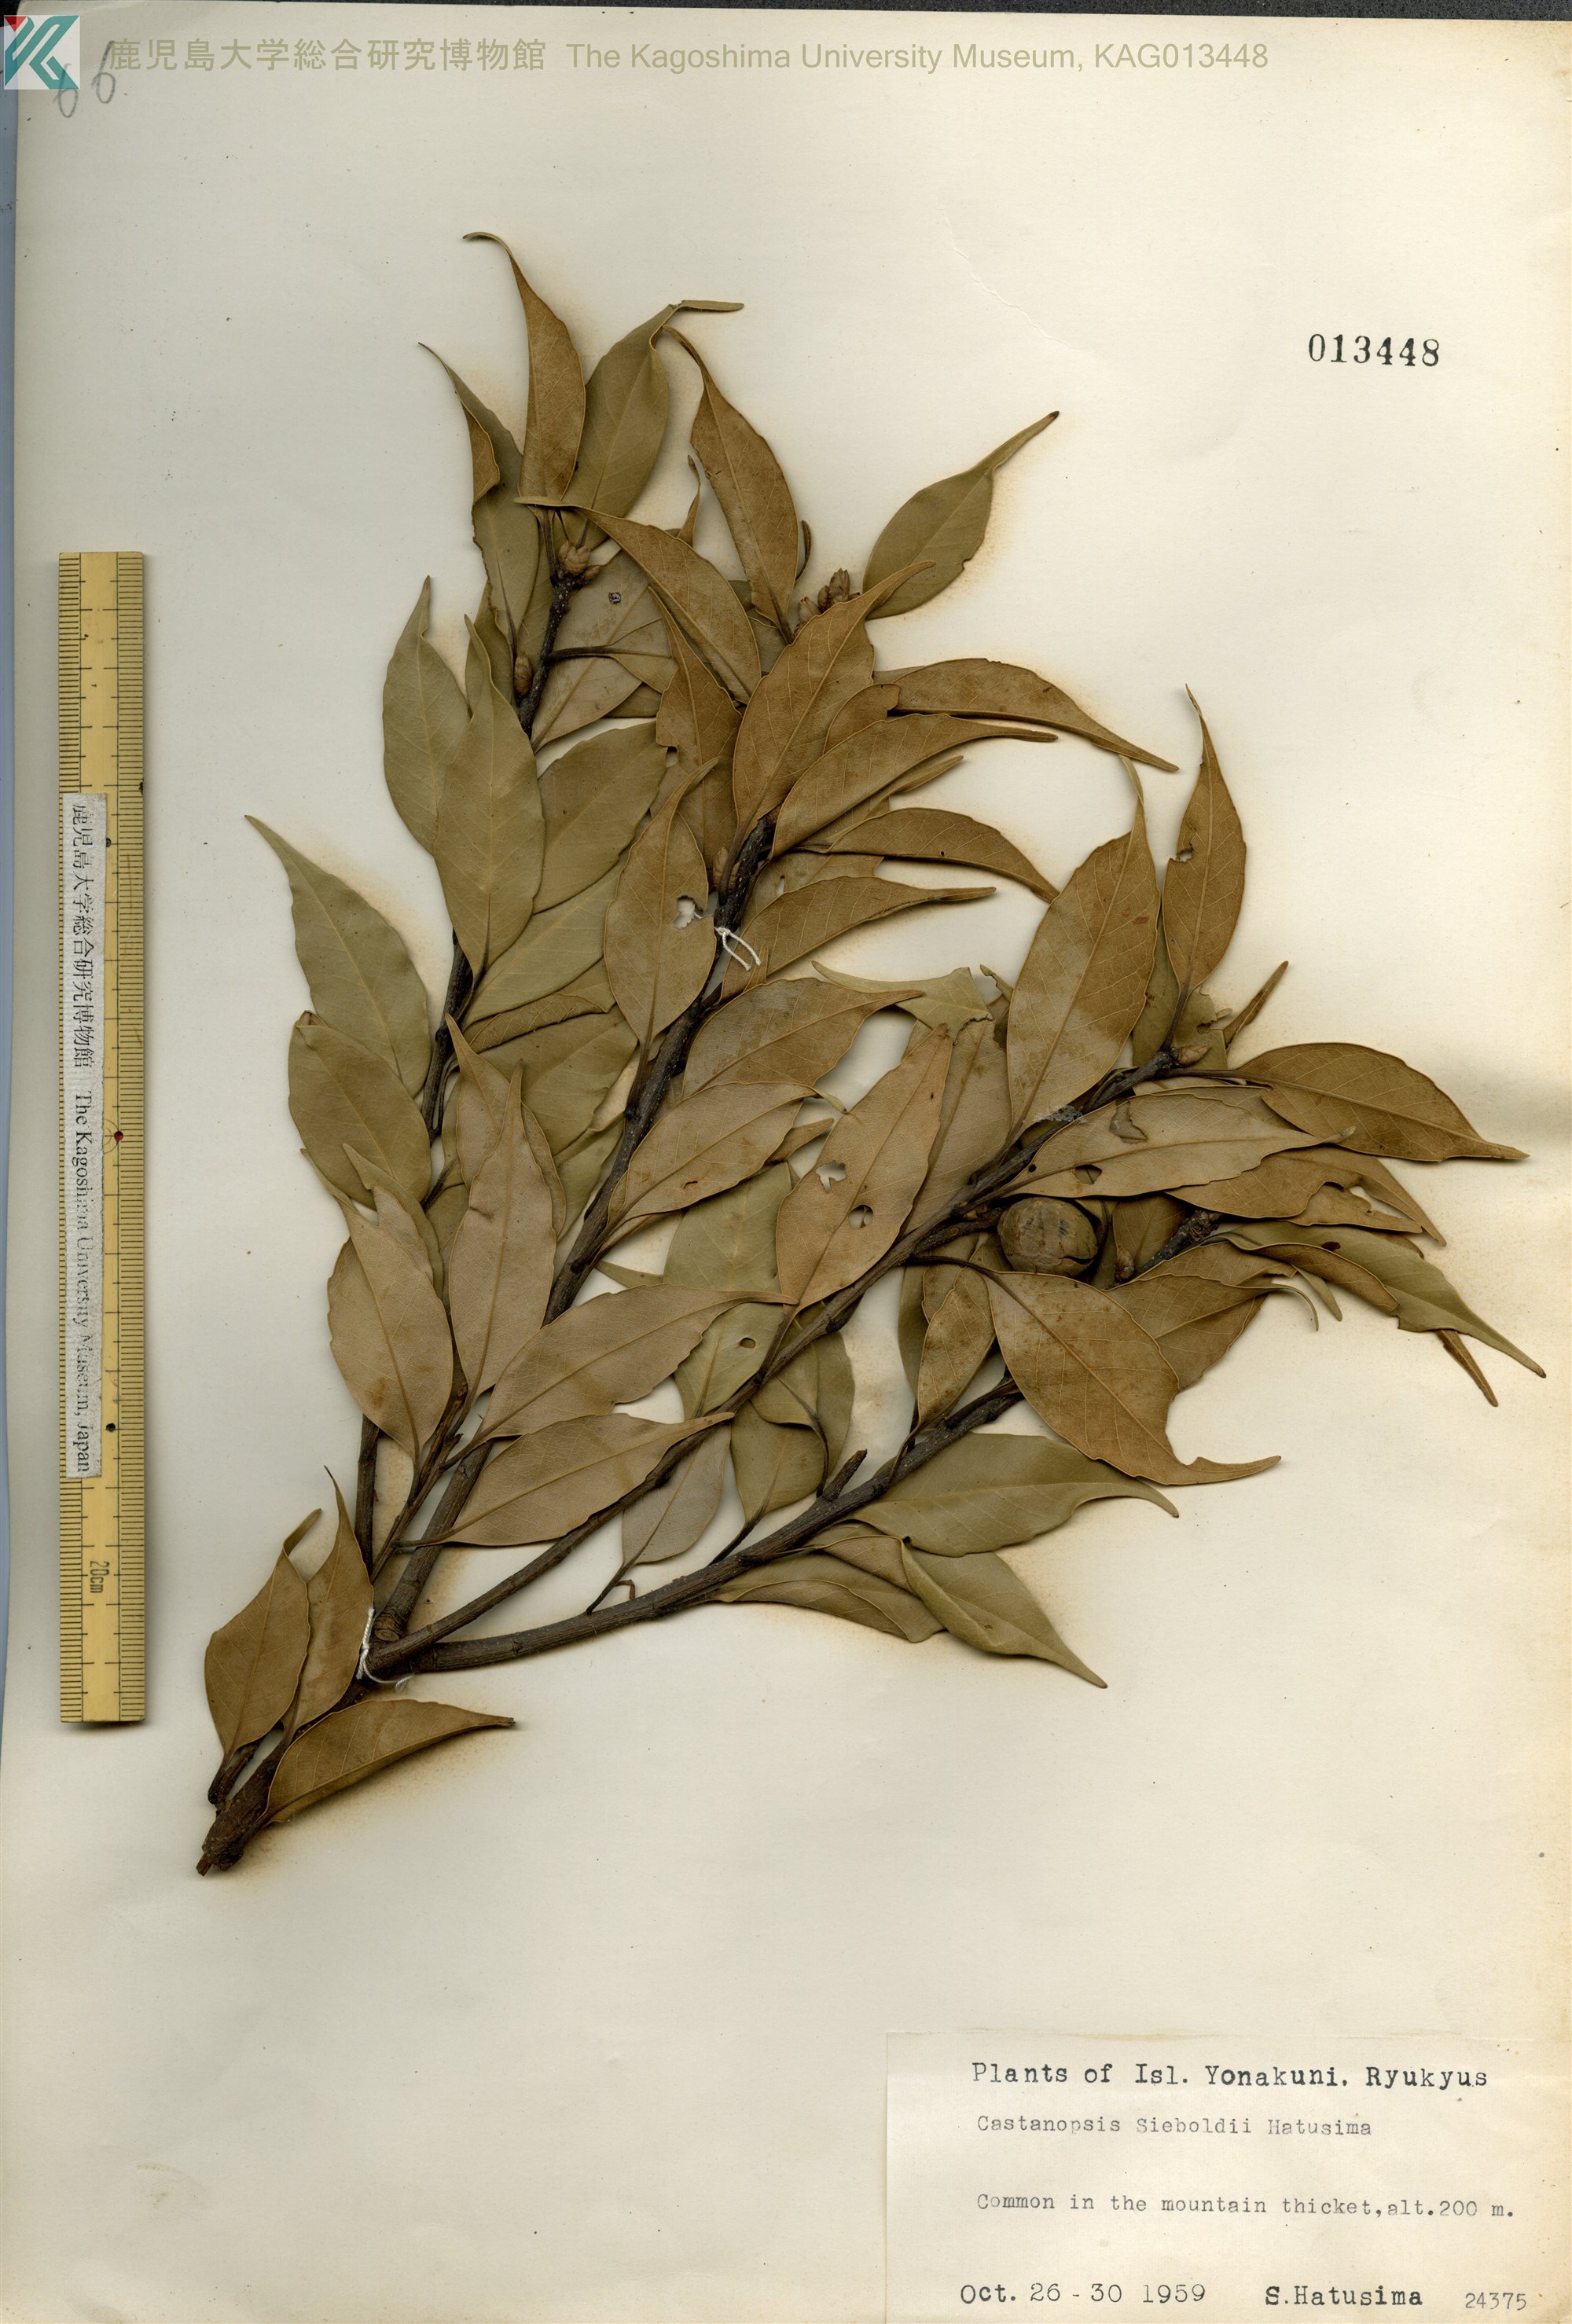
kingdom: Plantae
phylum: Tracheophyta
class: Magnoliopsida
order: Fagales
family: Fagaceae
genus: Castanopsis
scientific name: Castanopsis sieboldii
